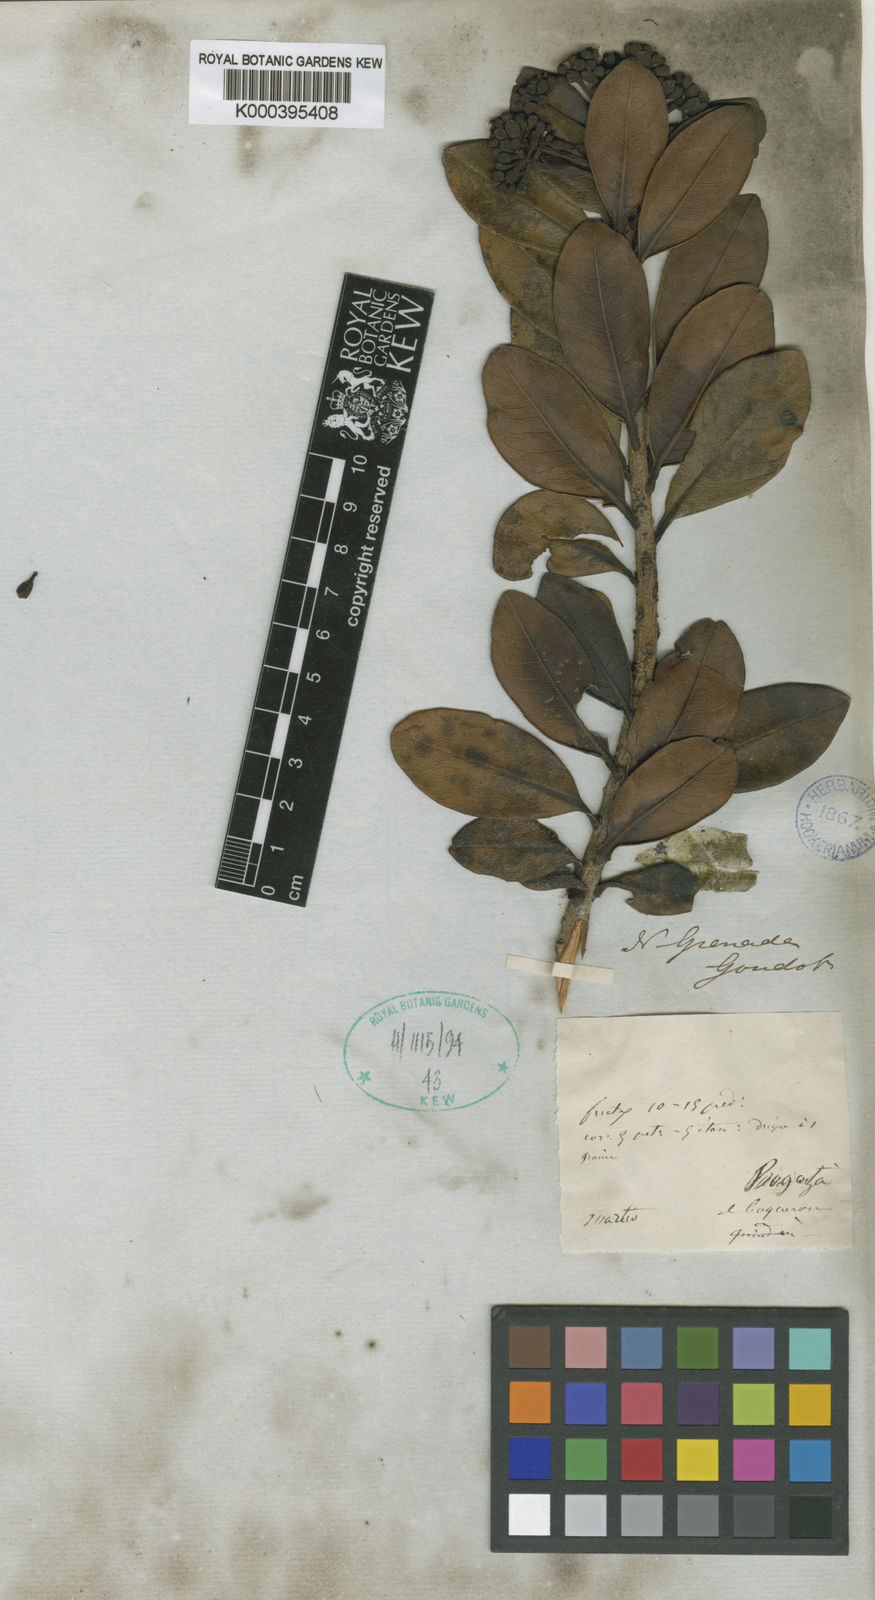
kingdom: Plantae
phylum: Tracheophyta
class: Magnoliopsida
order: Ericales
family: Primulaceae
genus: Geissanthus
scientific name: Geissanthus quindiensis
